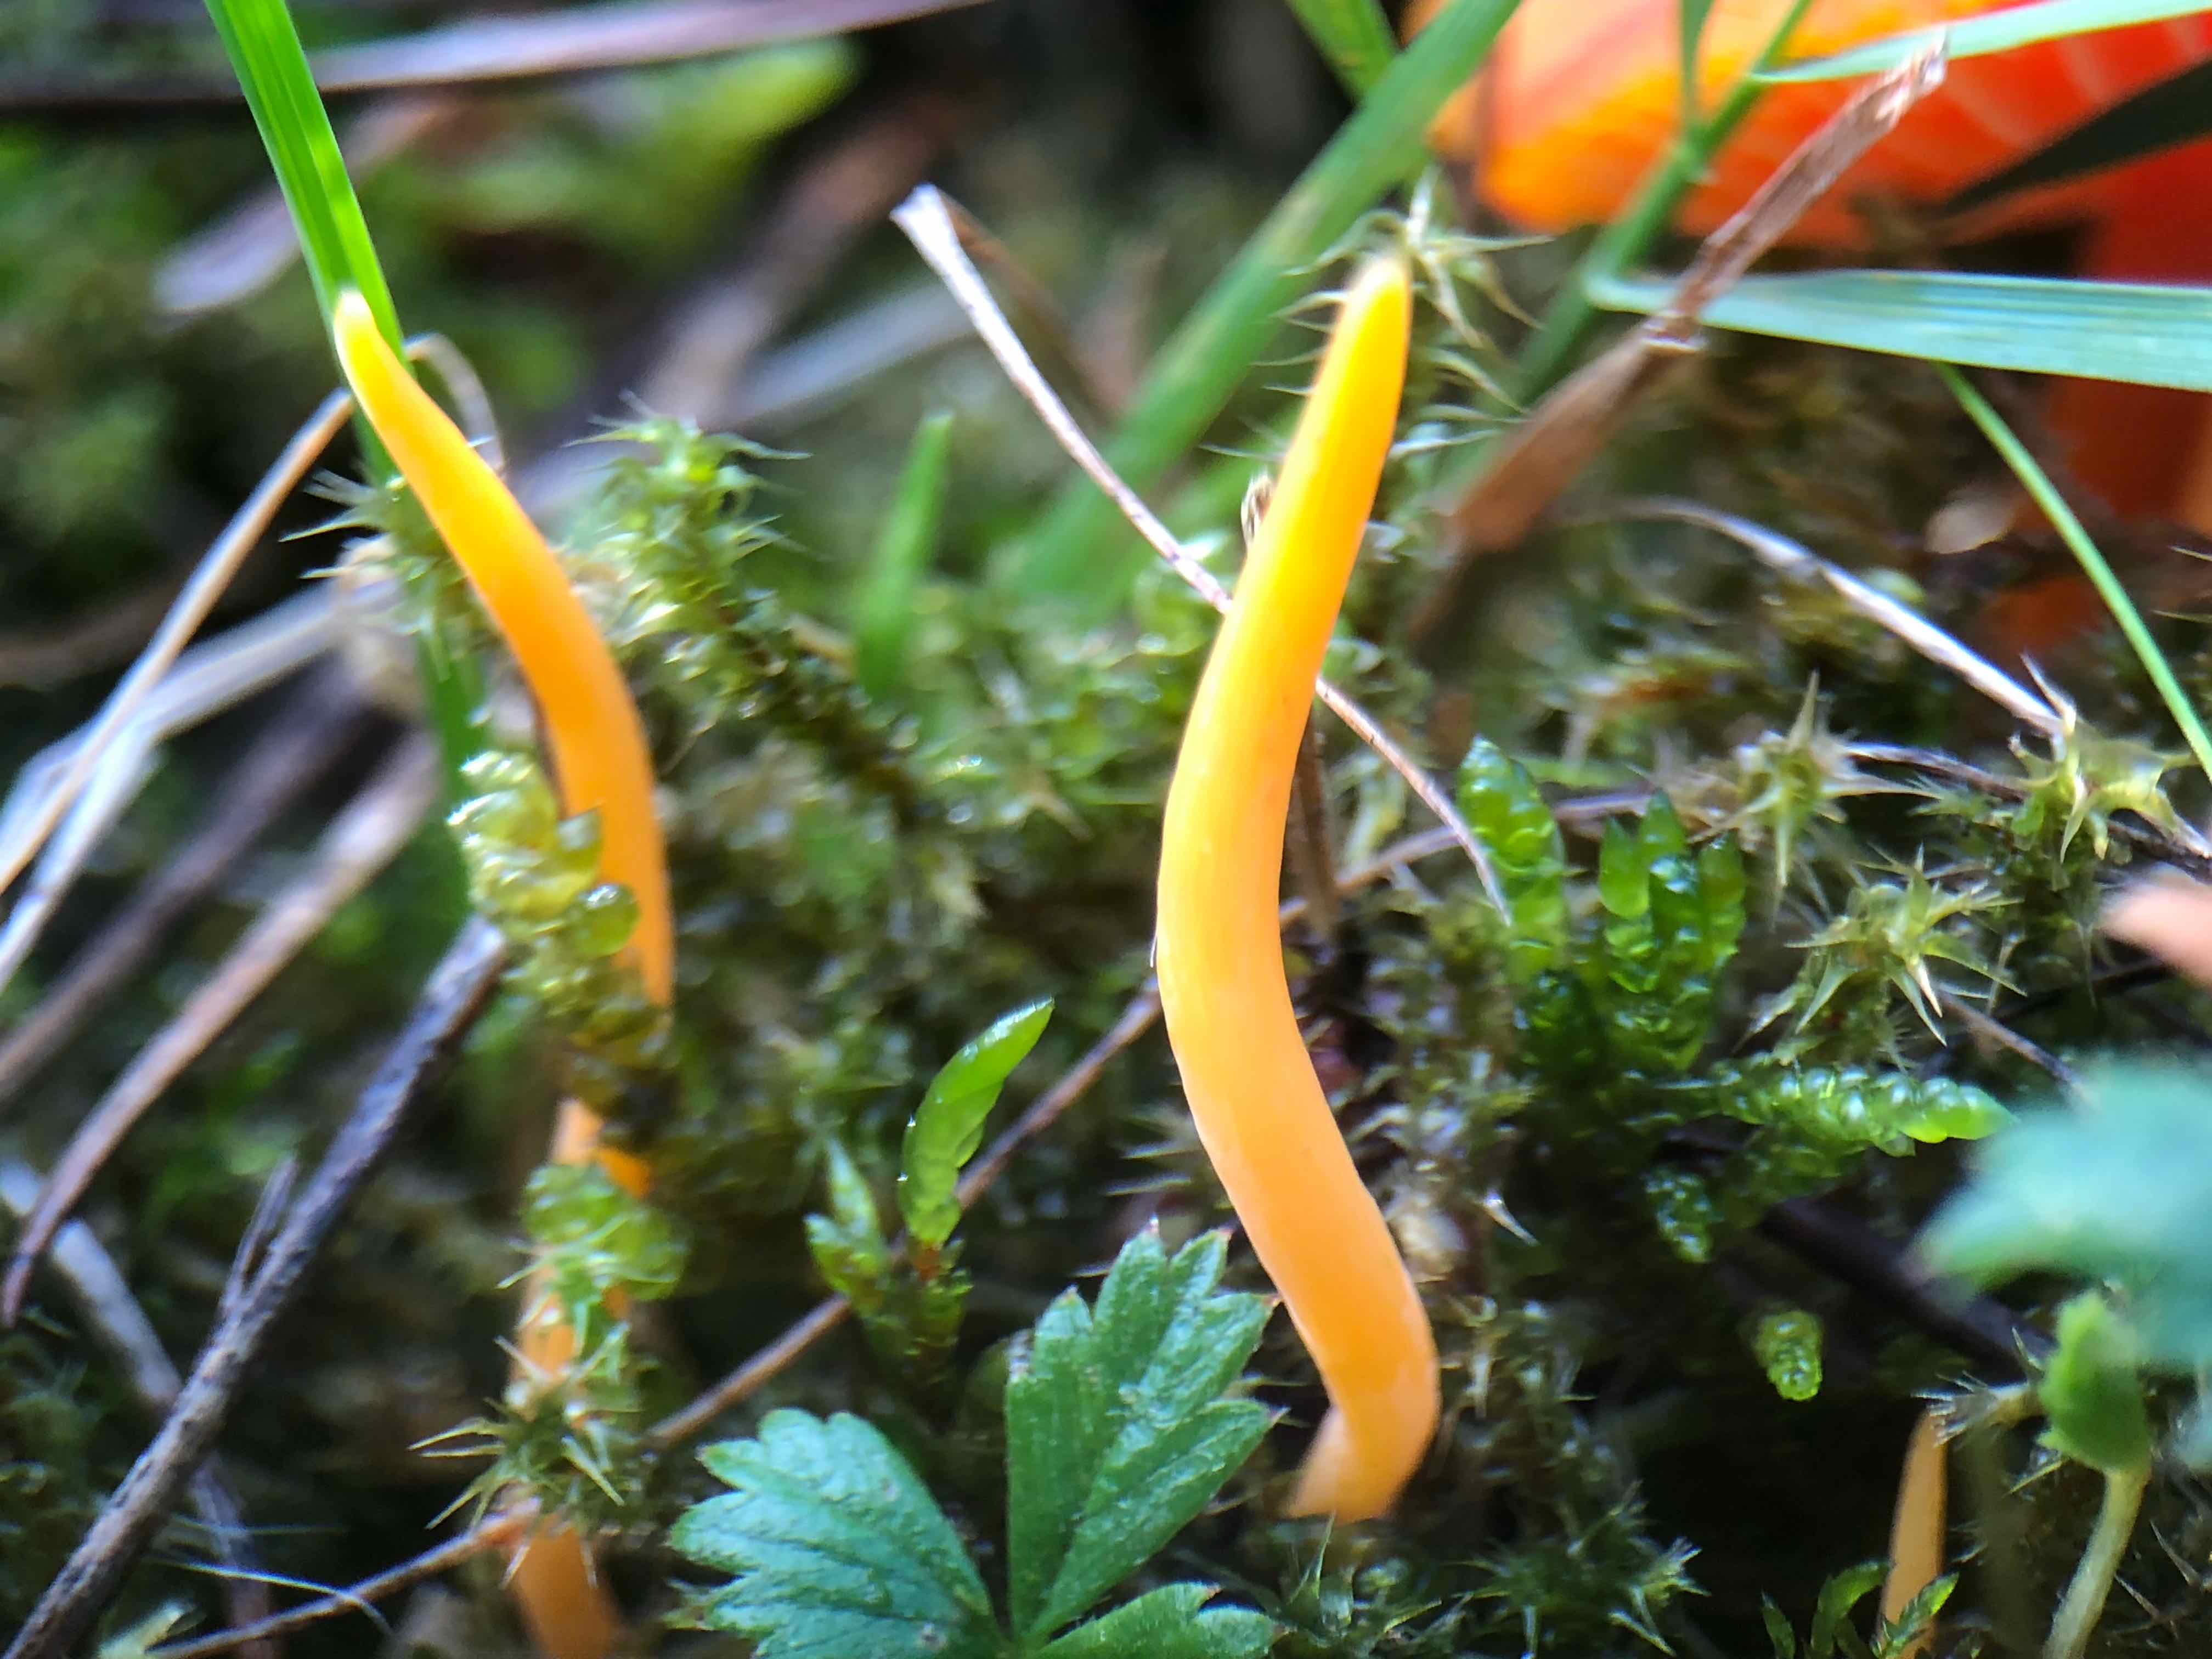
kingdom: Fungi
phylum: Basidiomycota
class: Agaricomycetes
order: Agaricales
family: Clavariaceae
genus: Clavulinopsis
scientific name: Clavulinopsis luteoalba
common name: abrikos-køllesvamp
